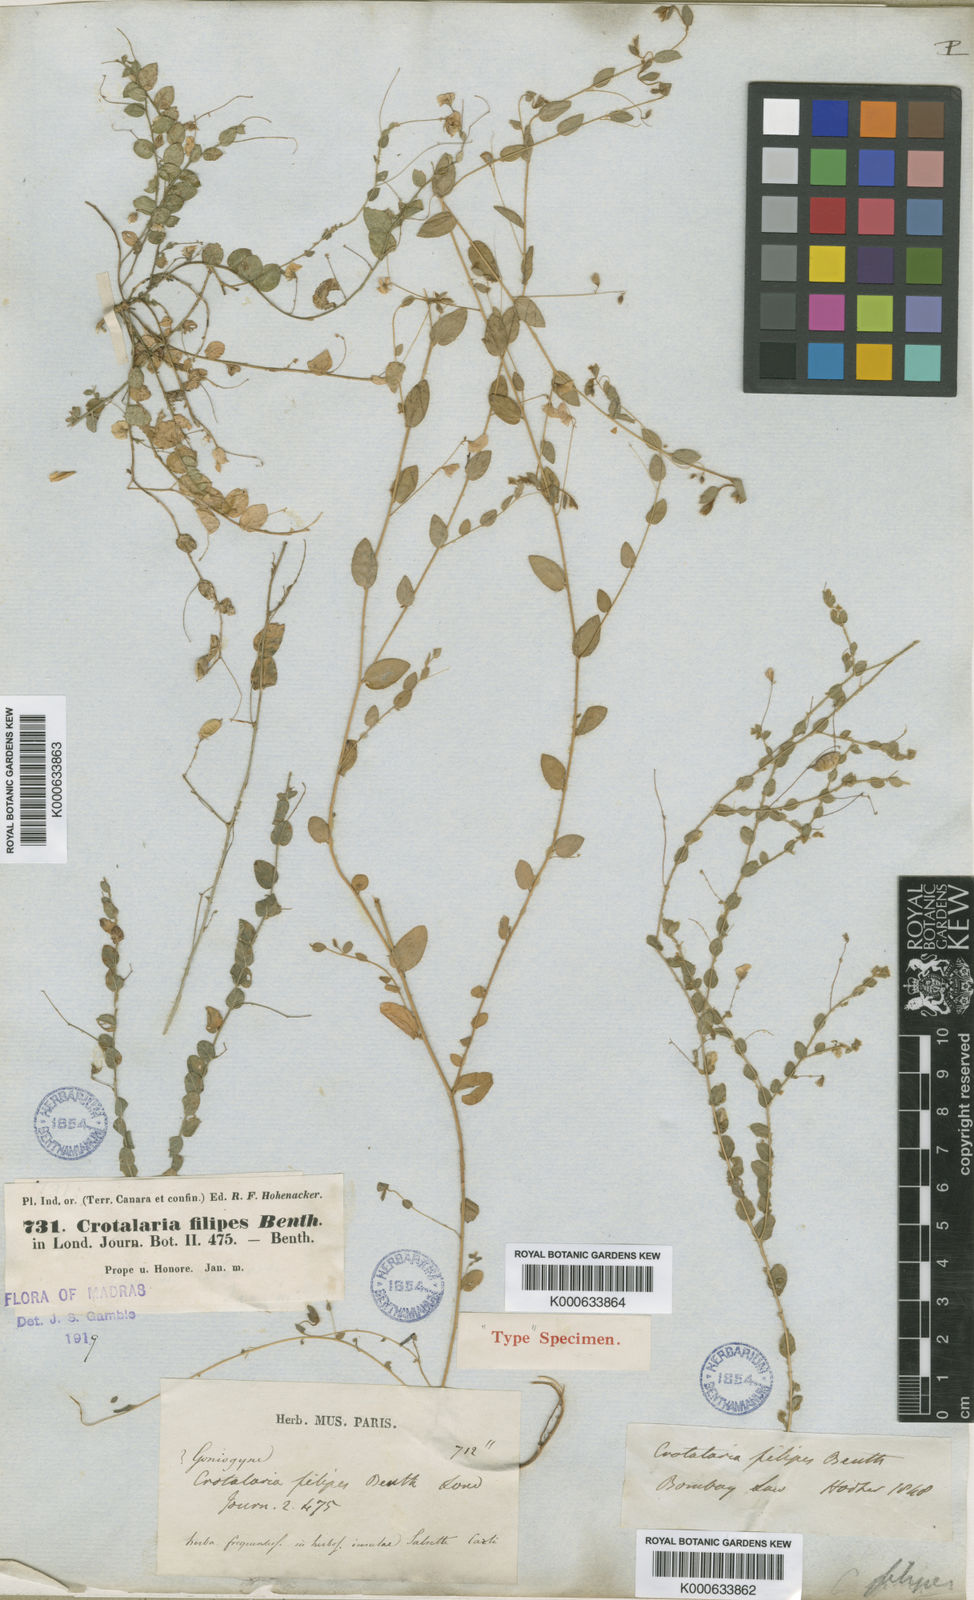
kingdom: Plantae
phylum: Tracheophyta
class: Magnoliopsida
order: Fabales
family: Fabaceae
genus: Crotalaria
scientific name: Crotalaria filipes
